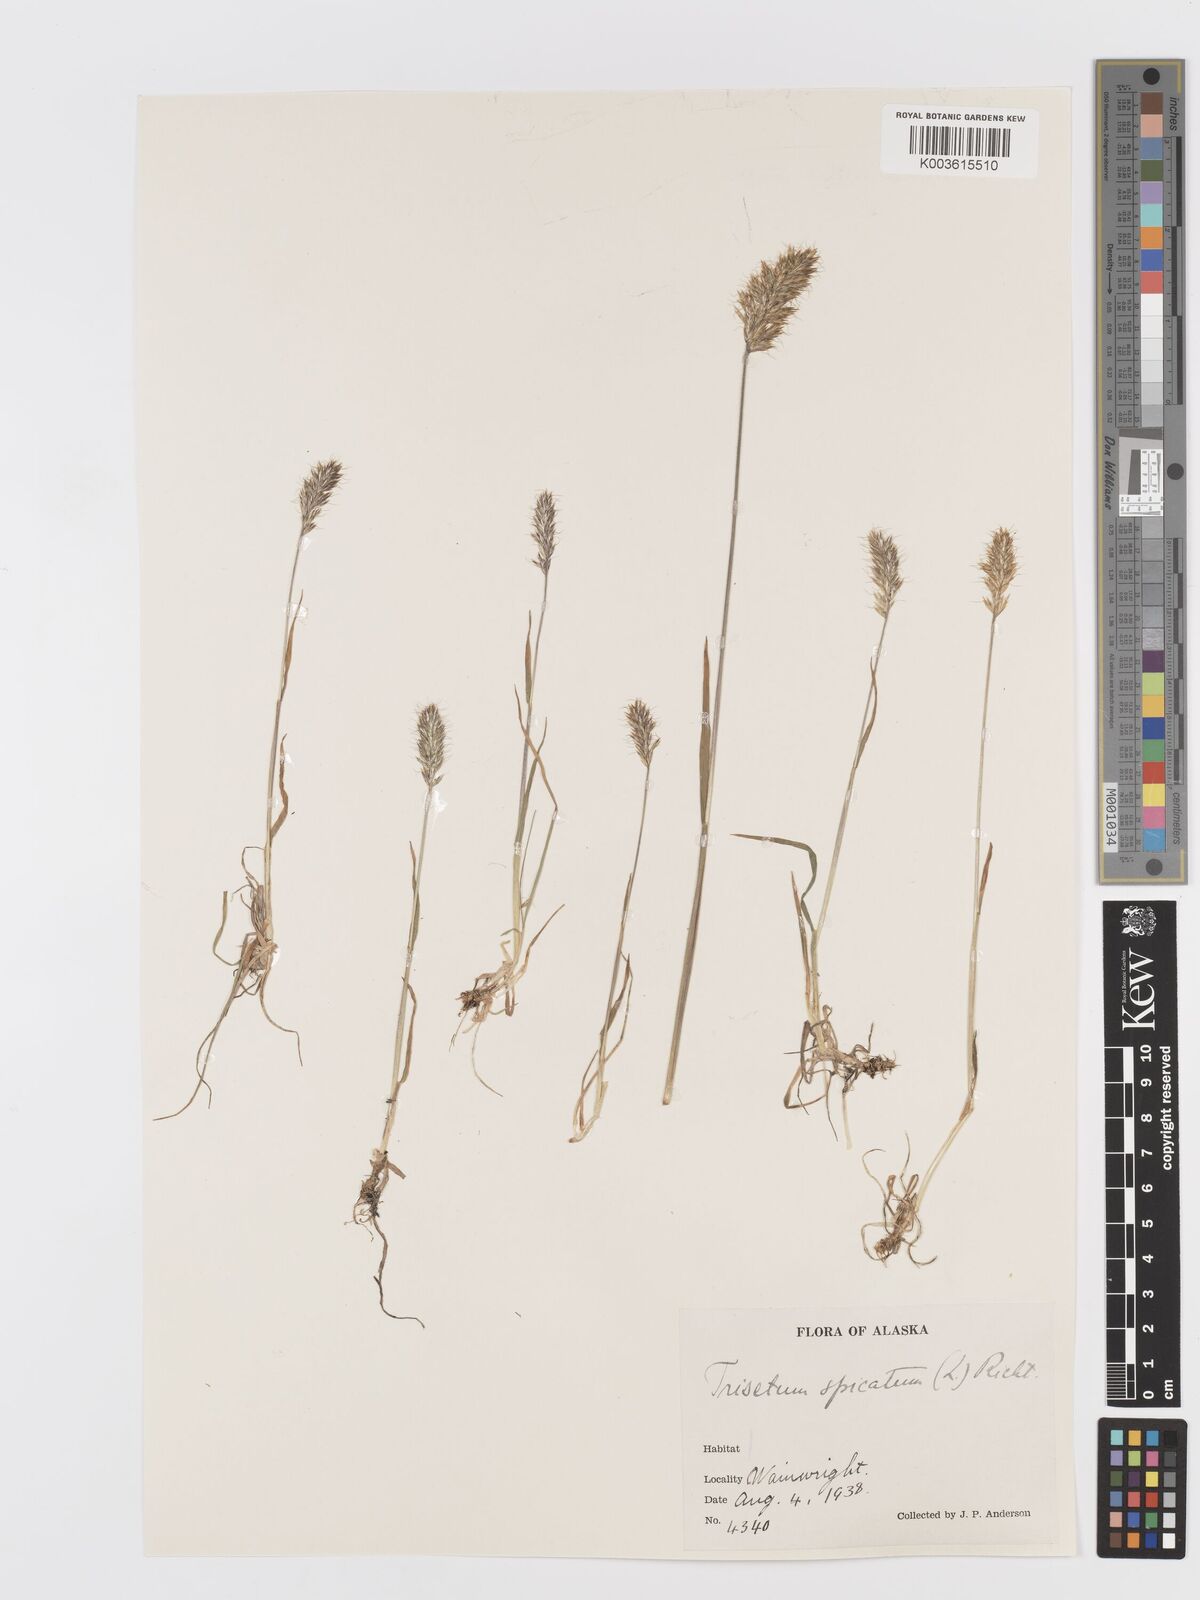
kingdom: Plantae
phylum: Tracheophyta
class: Liliopsida
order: Poales
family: Poaceae
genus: Koeleria
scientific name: Koeleria spicata
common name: Mountain trisetum
